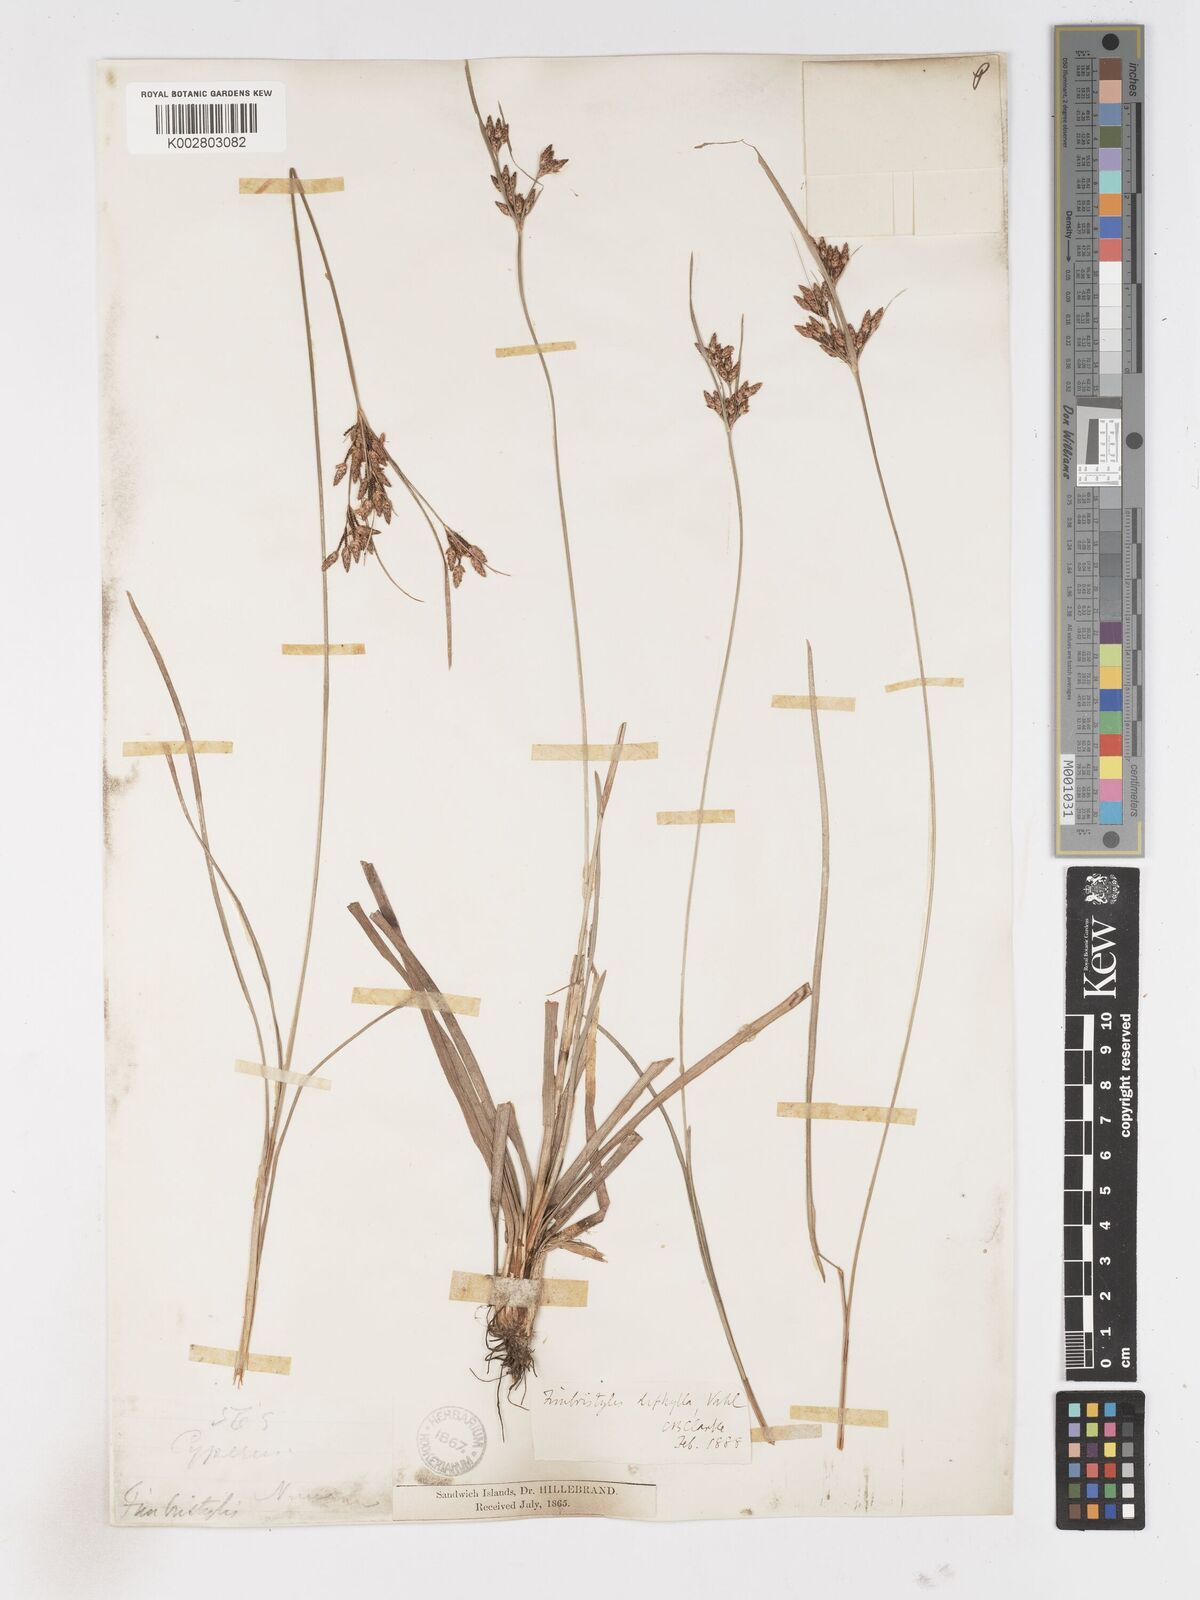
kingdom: Plantae
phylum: Tracheophyta
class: Liliopsida
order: Poales
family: Cyperaceae
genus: Fimbristylis
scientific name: Fimbristylis dichotoma
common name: Forked fimbry
